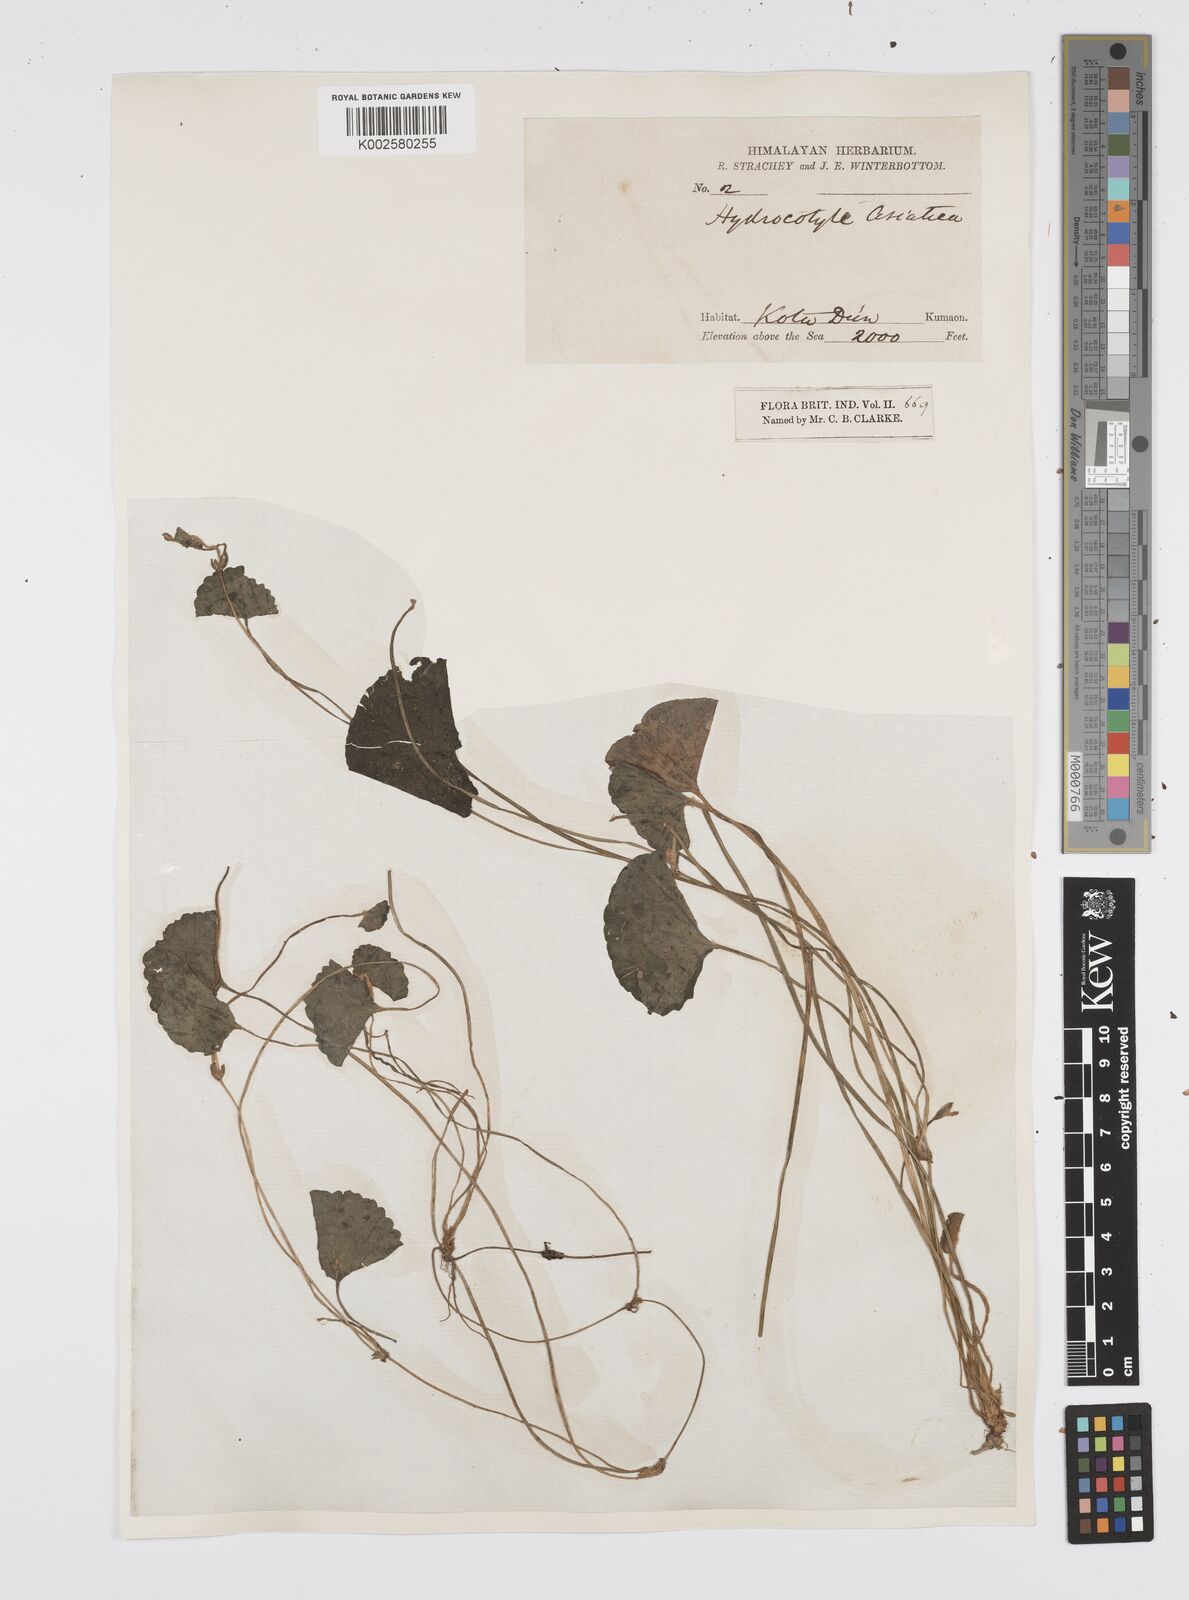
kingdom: Plantae
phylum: Tracheophyta
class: Magnoliopsida
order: Apiales
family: Apiaceae
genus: Centella
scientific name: Centella asiatica
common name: Spadeleaf
